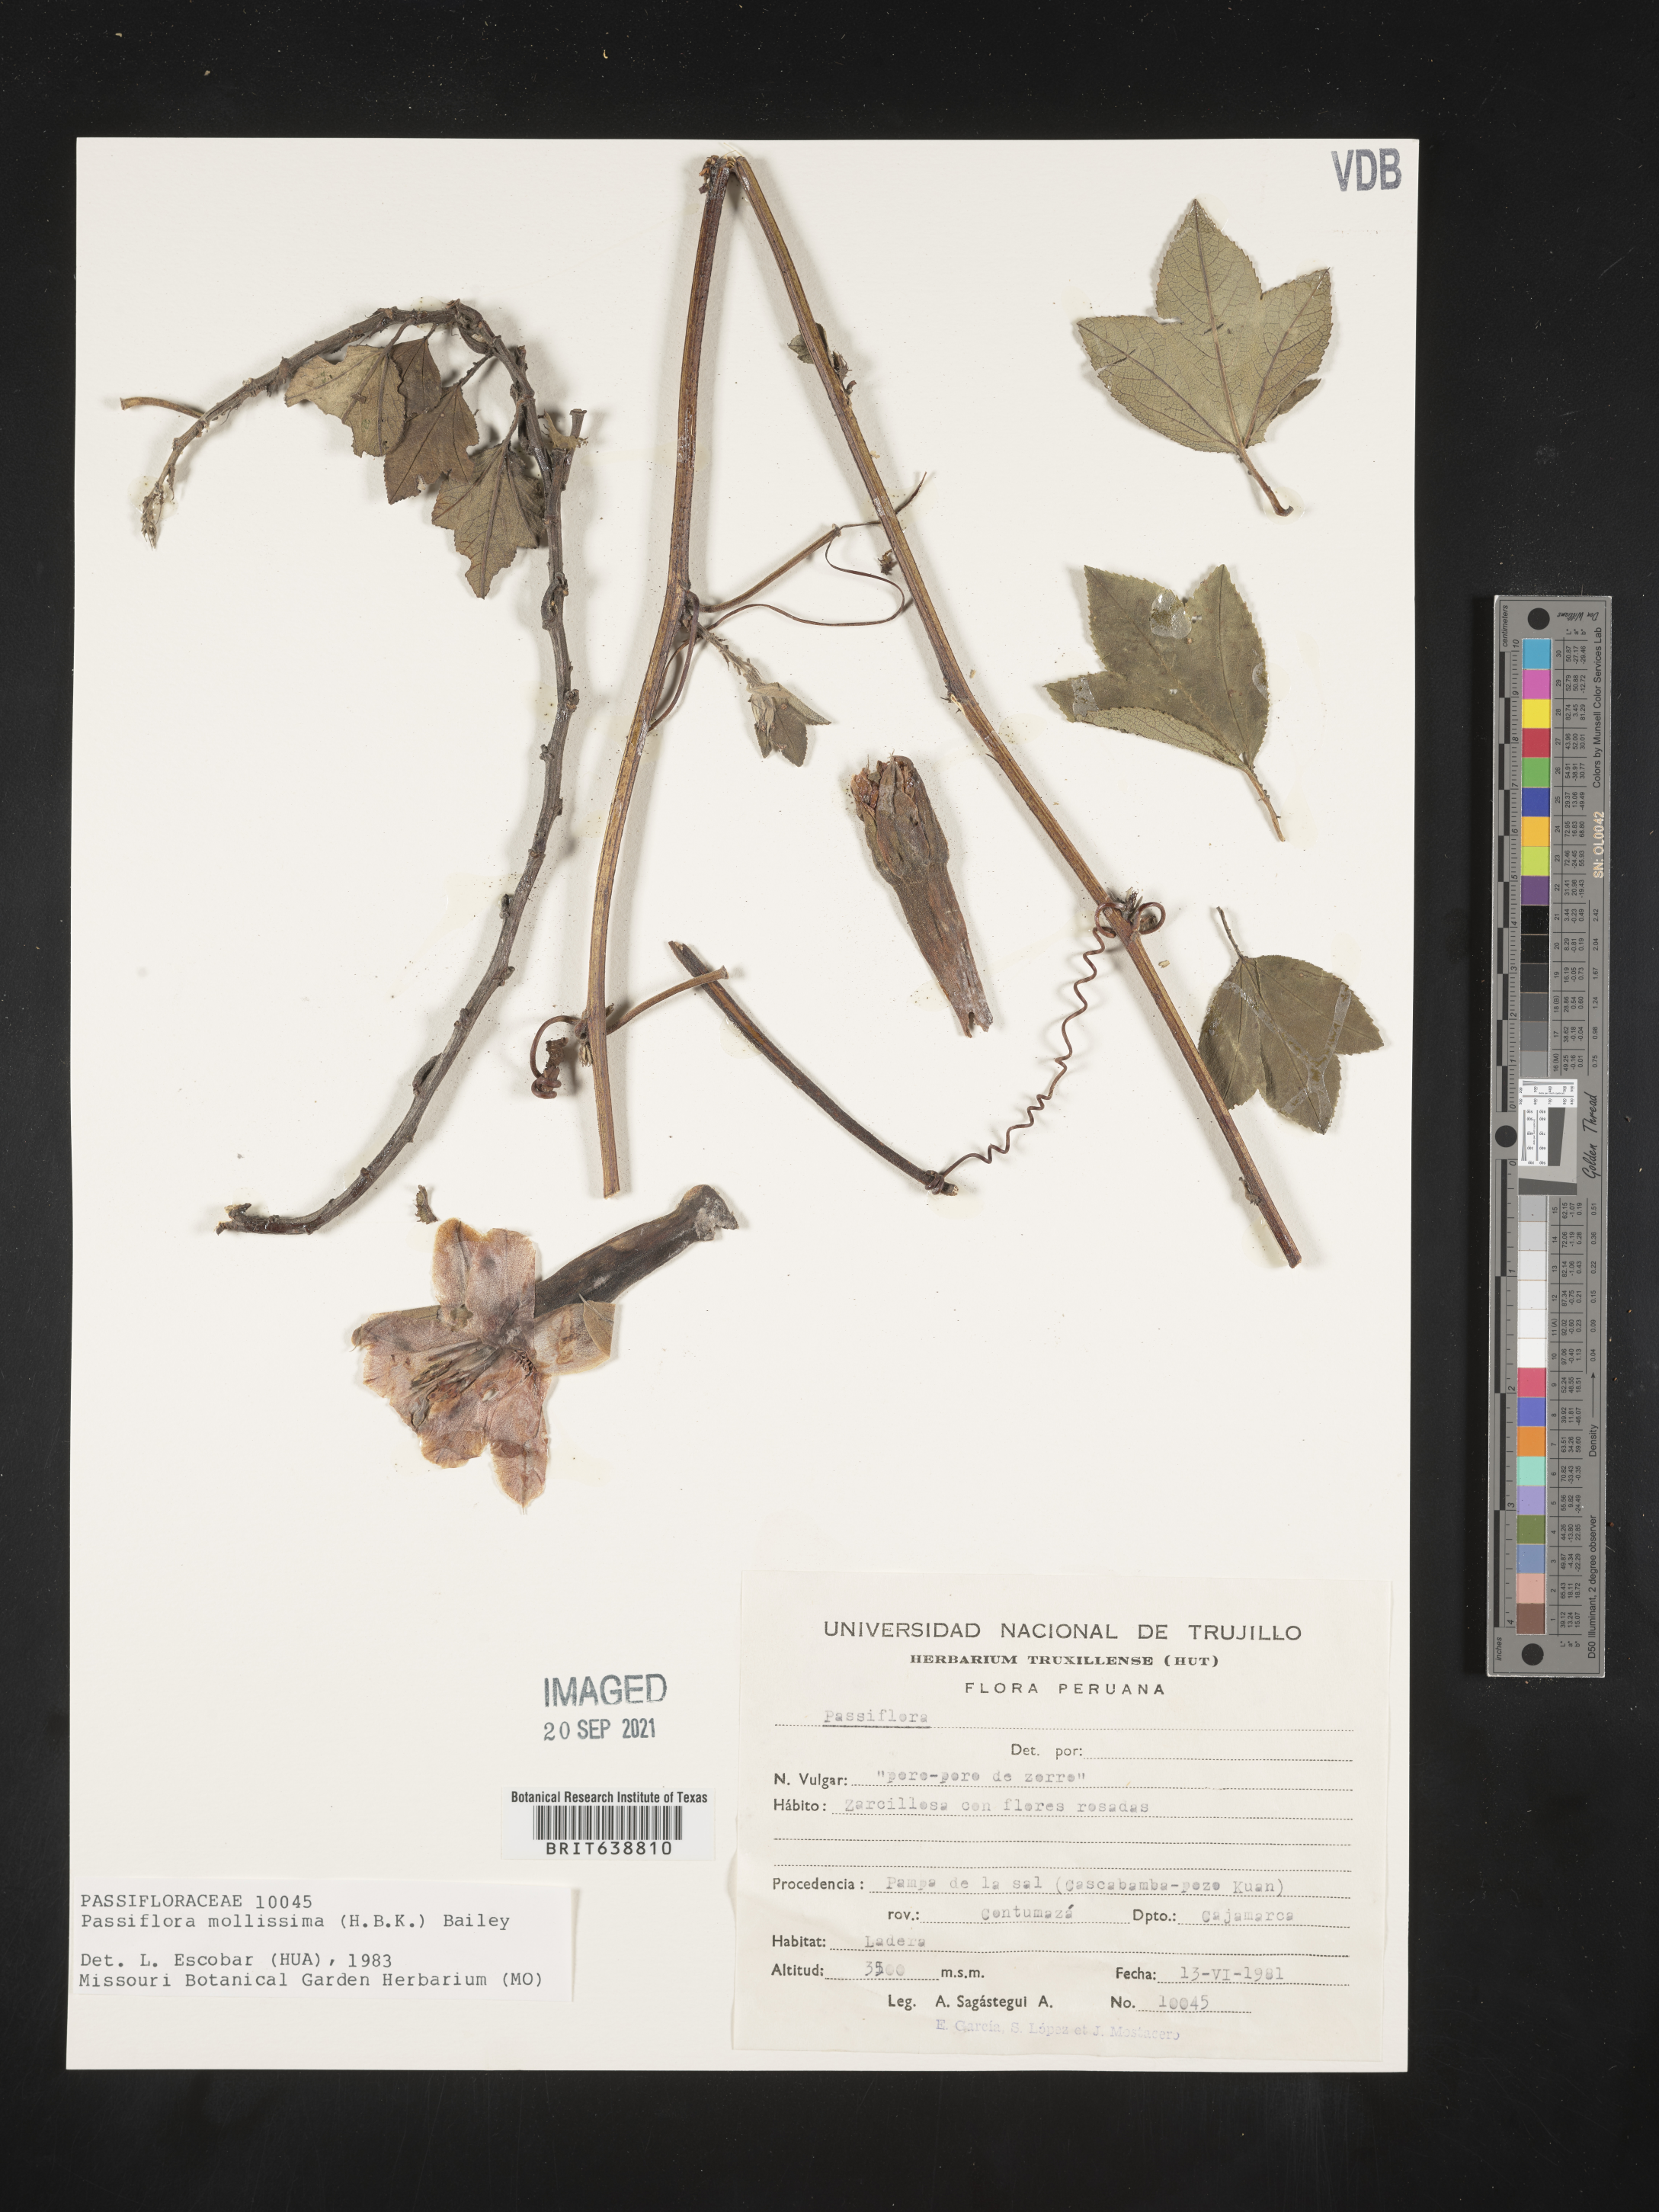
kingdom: Plantae
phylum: Tracheophyta
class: Magnoliopsida
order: Malpighiales
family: Passifloraceae
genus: Passiflora
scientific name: Passiflora
